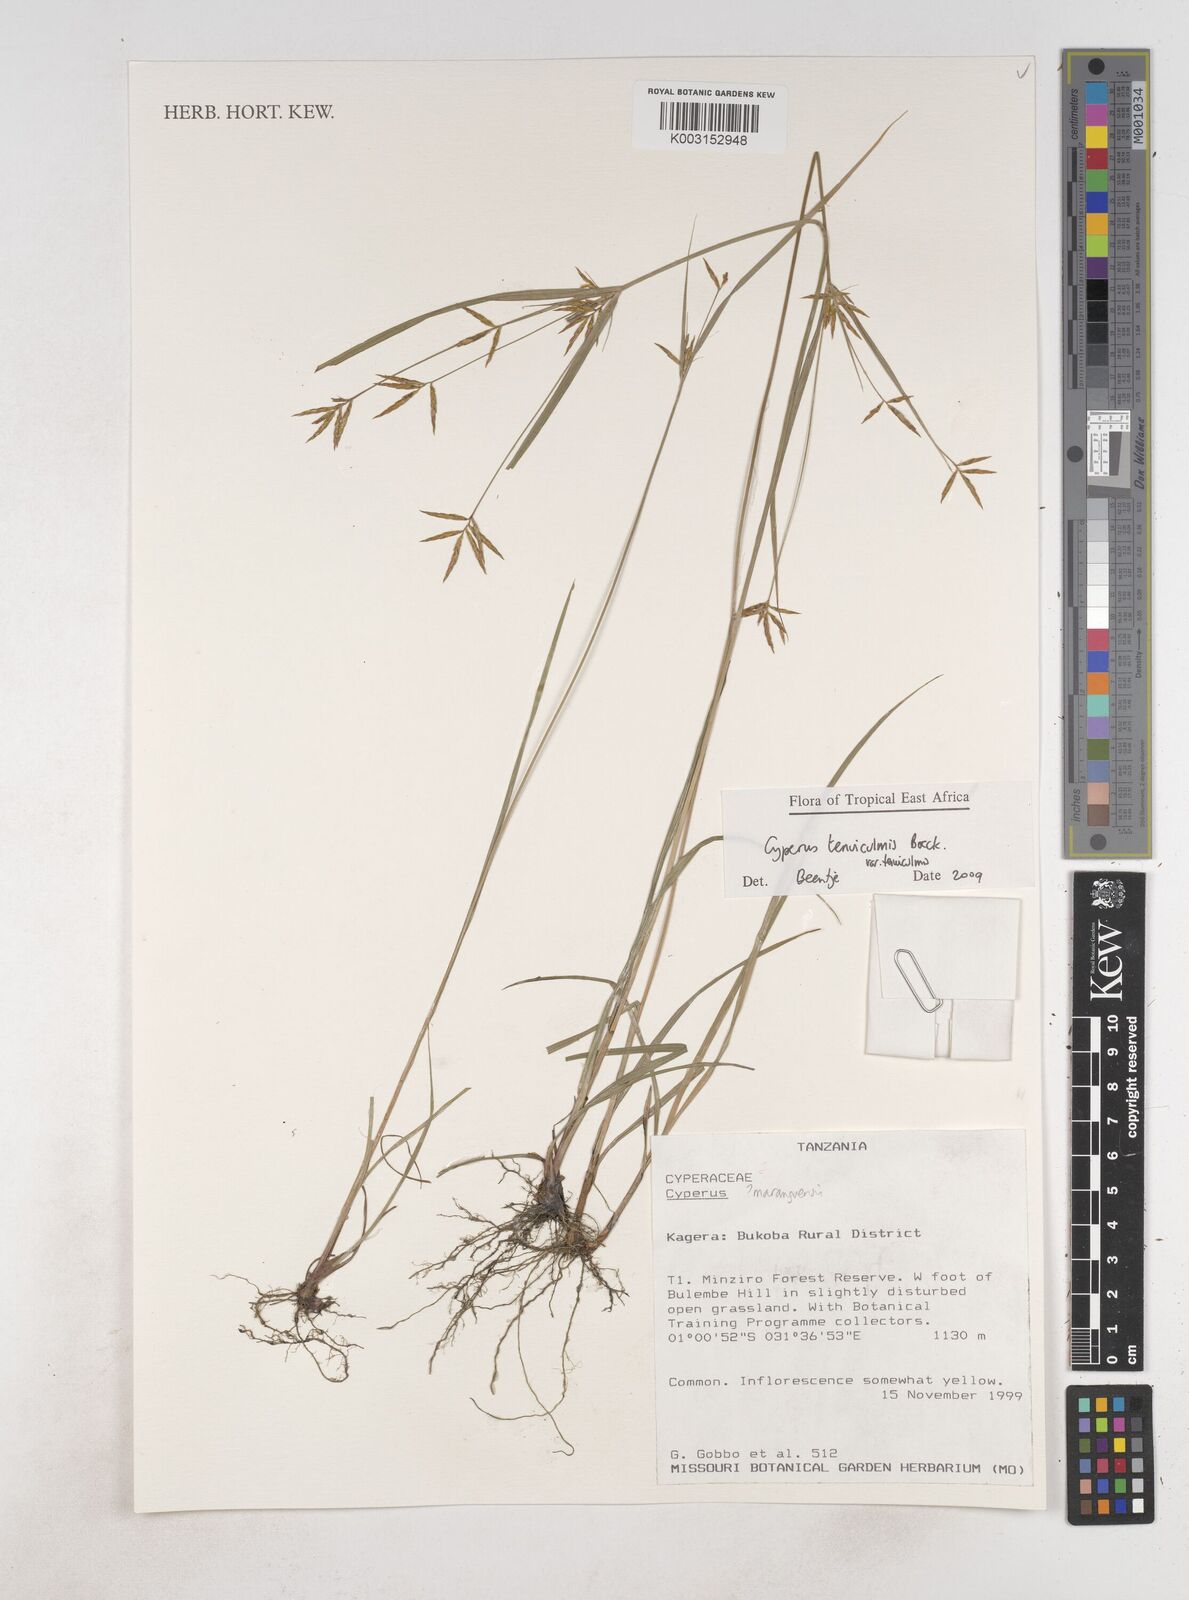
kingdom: Plantae
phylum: Tracheophyta
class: Liliopsida
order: Poales
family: Cyperaceae
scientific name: Cyperaceae
